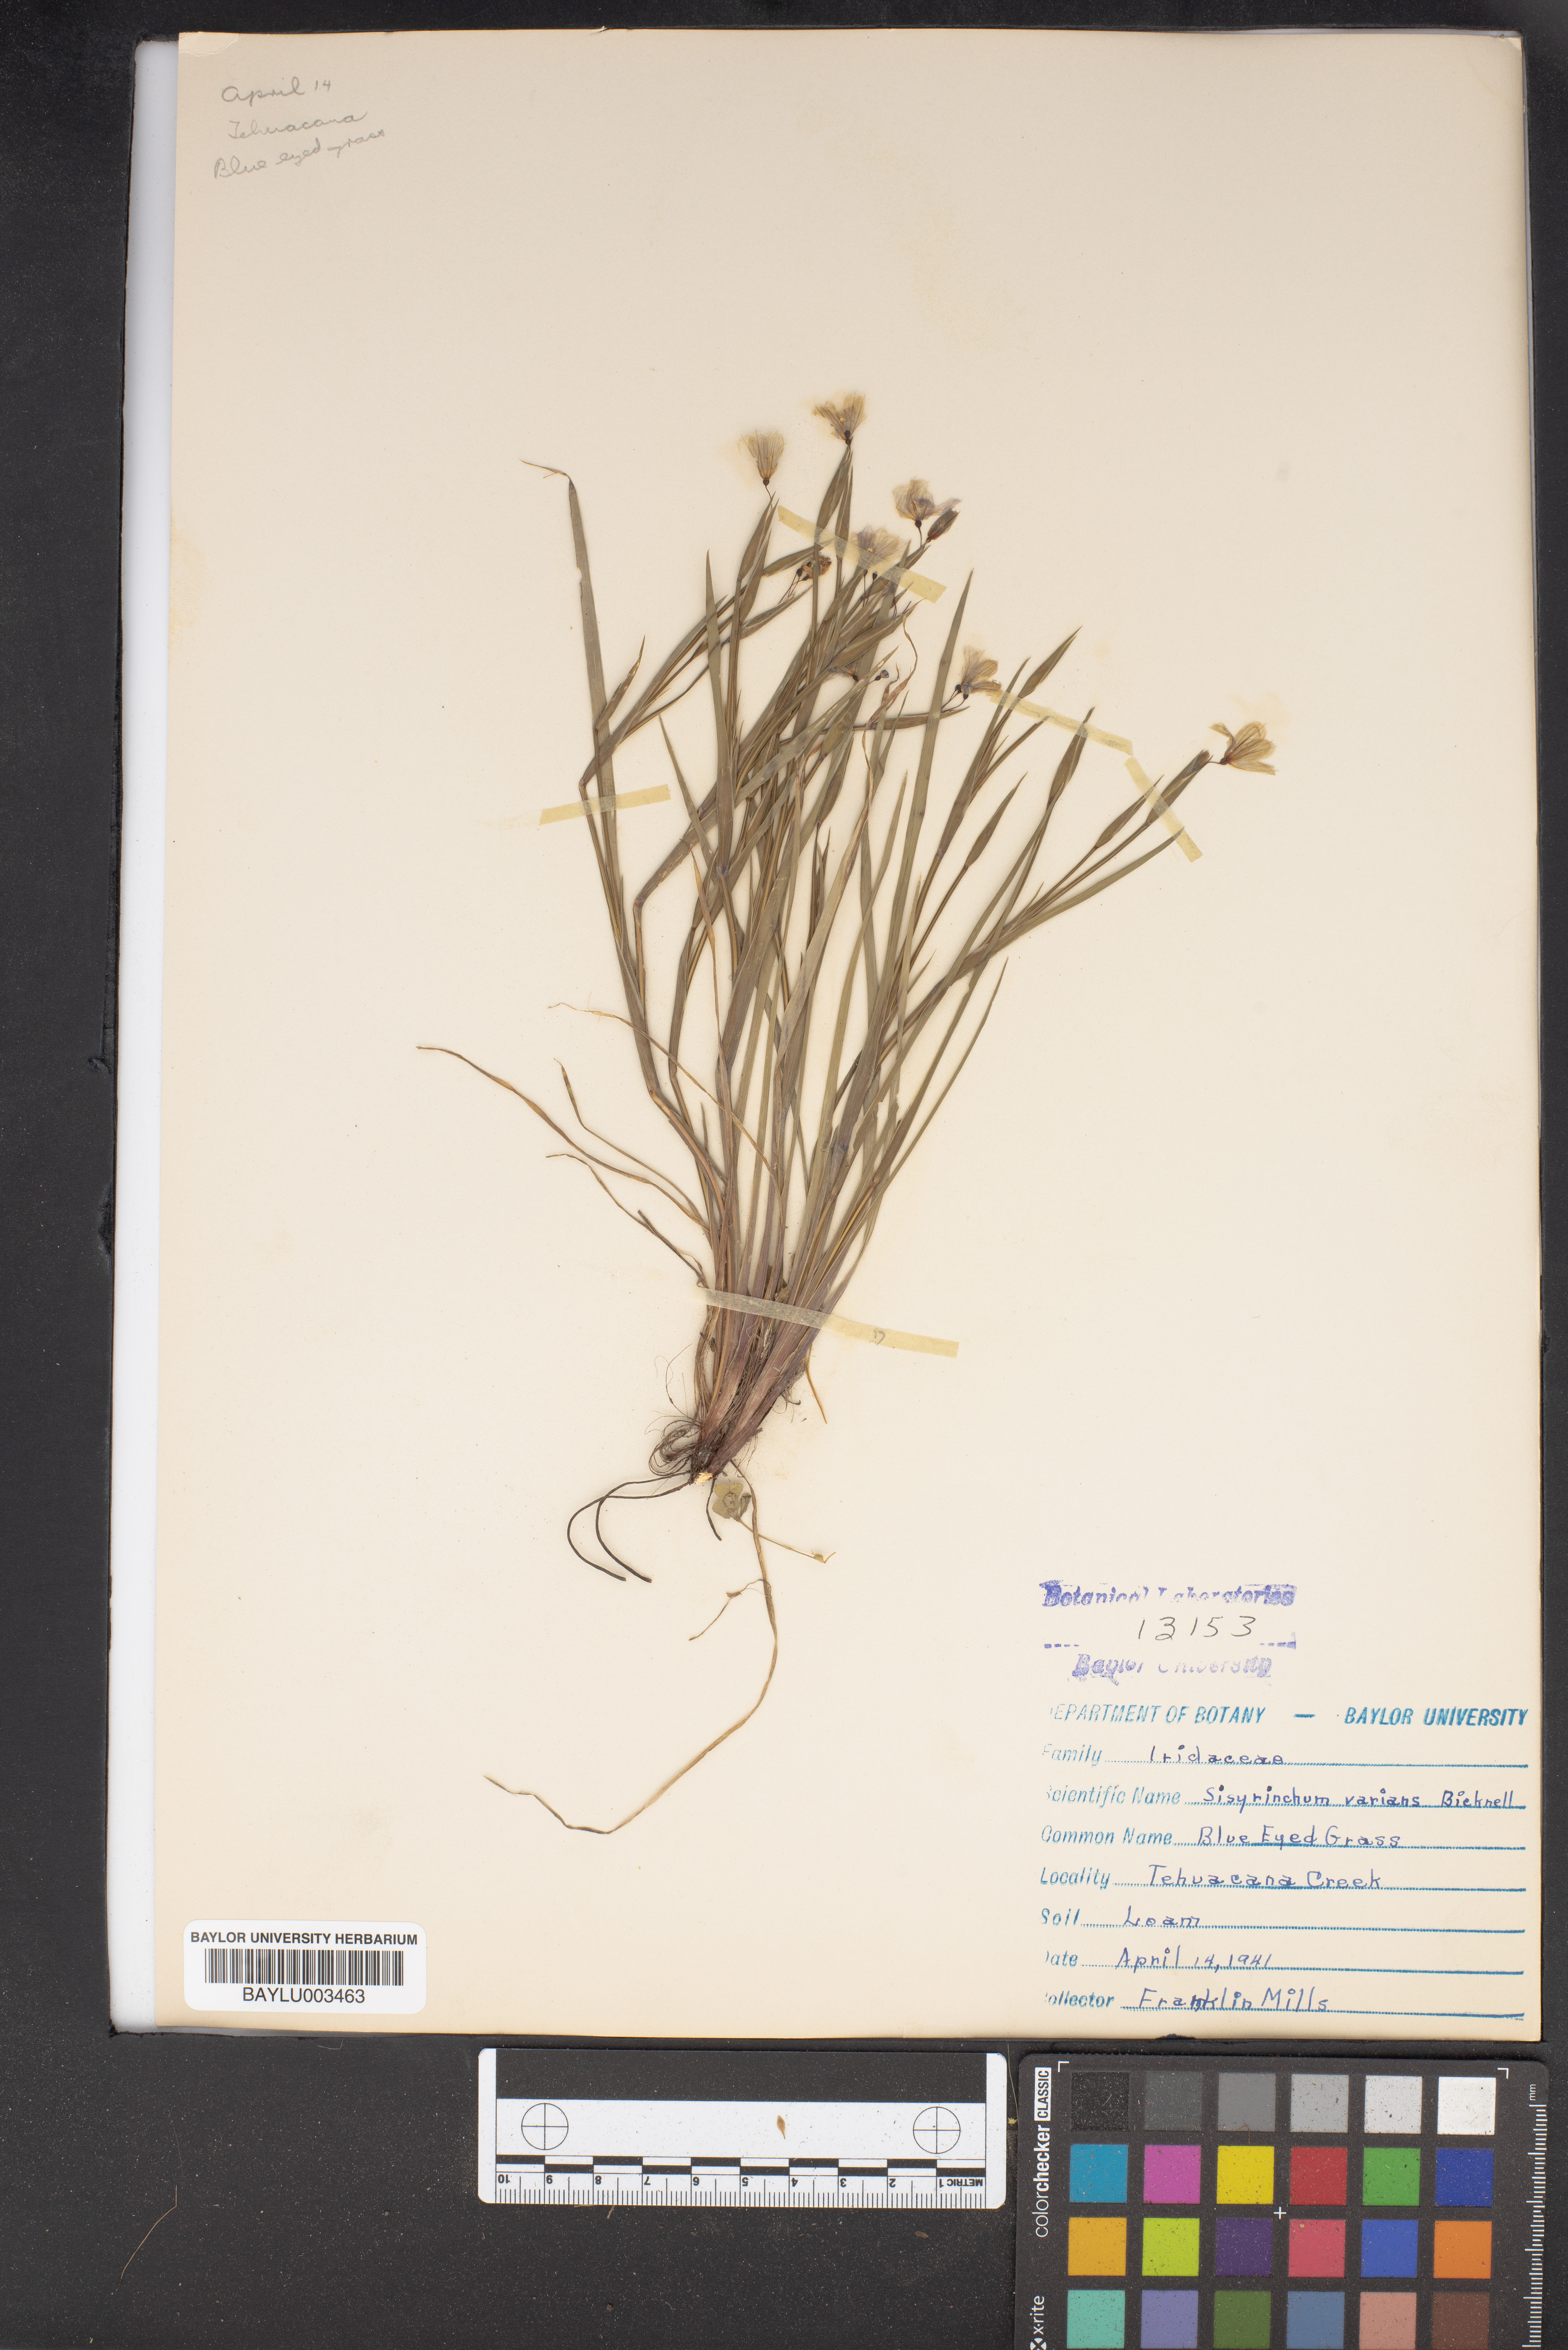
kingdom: Plantae
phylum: Tracheophyta
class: Liliopsida
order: Asparagales
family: Iridaceae
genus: Sisyrinchium
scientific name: Sisyrinchium pruinosum
